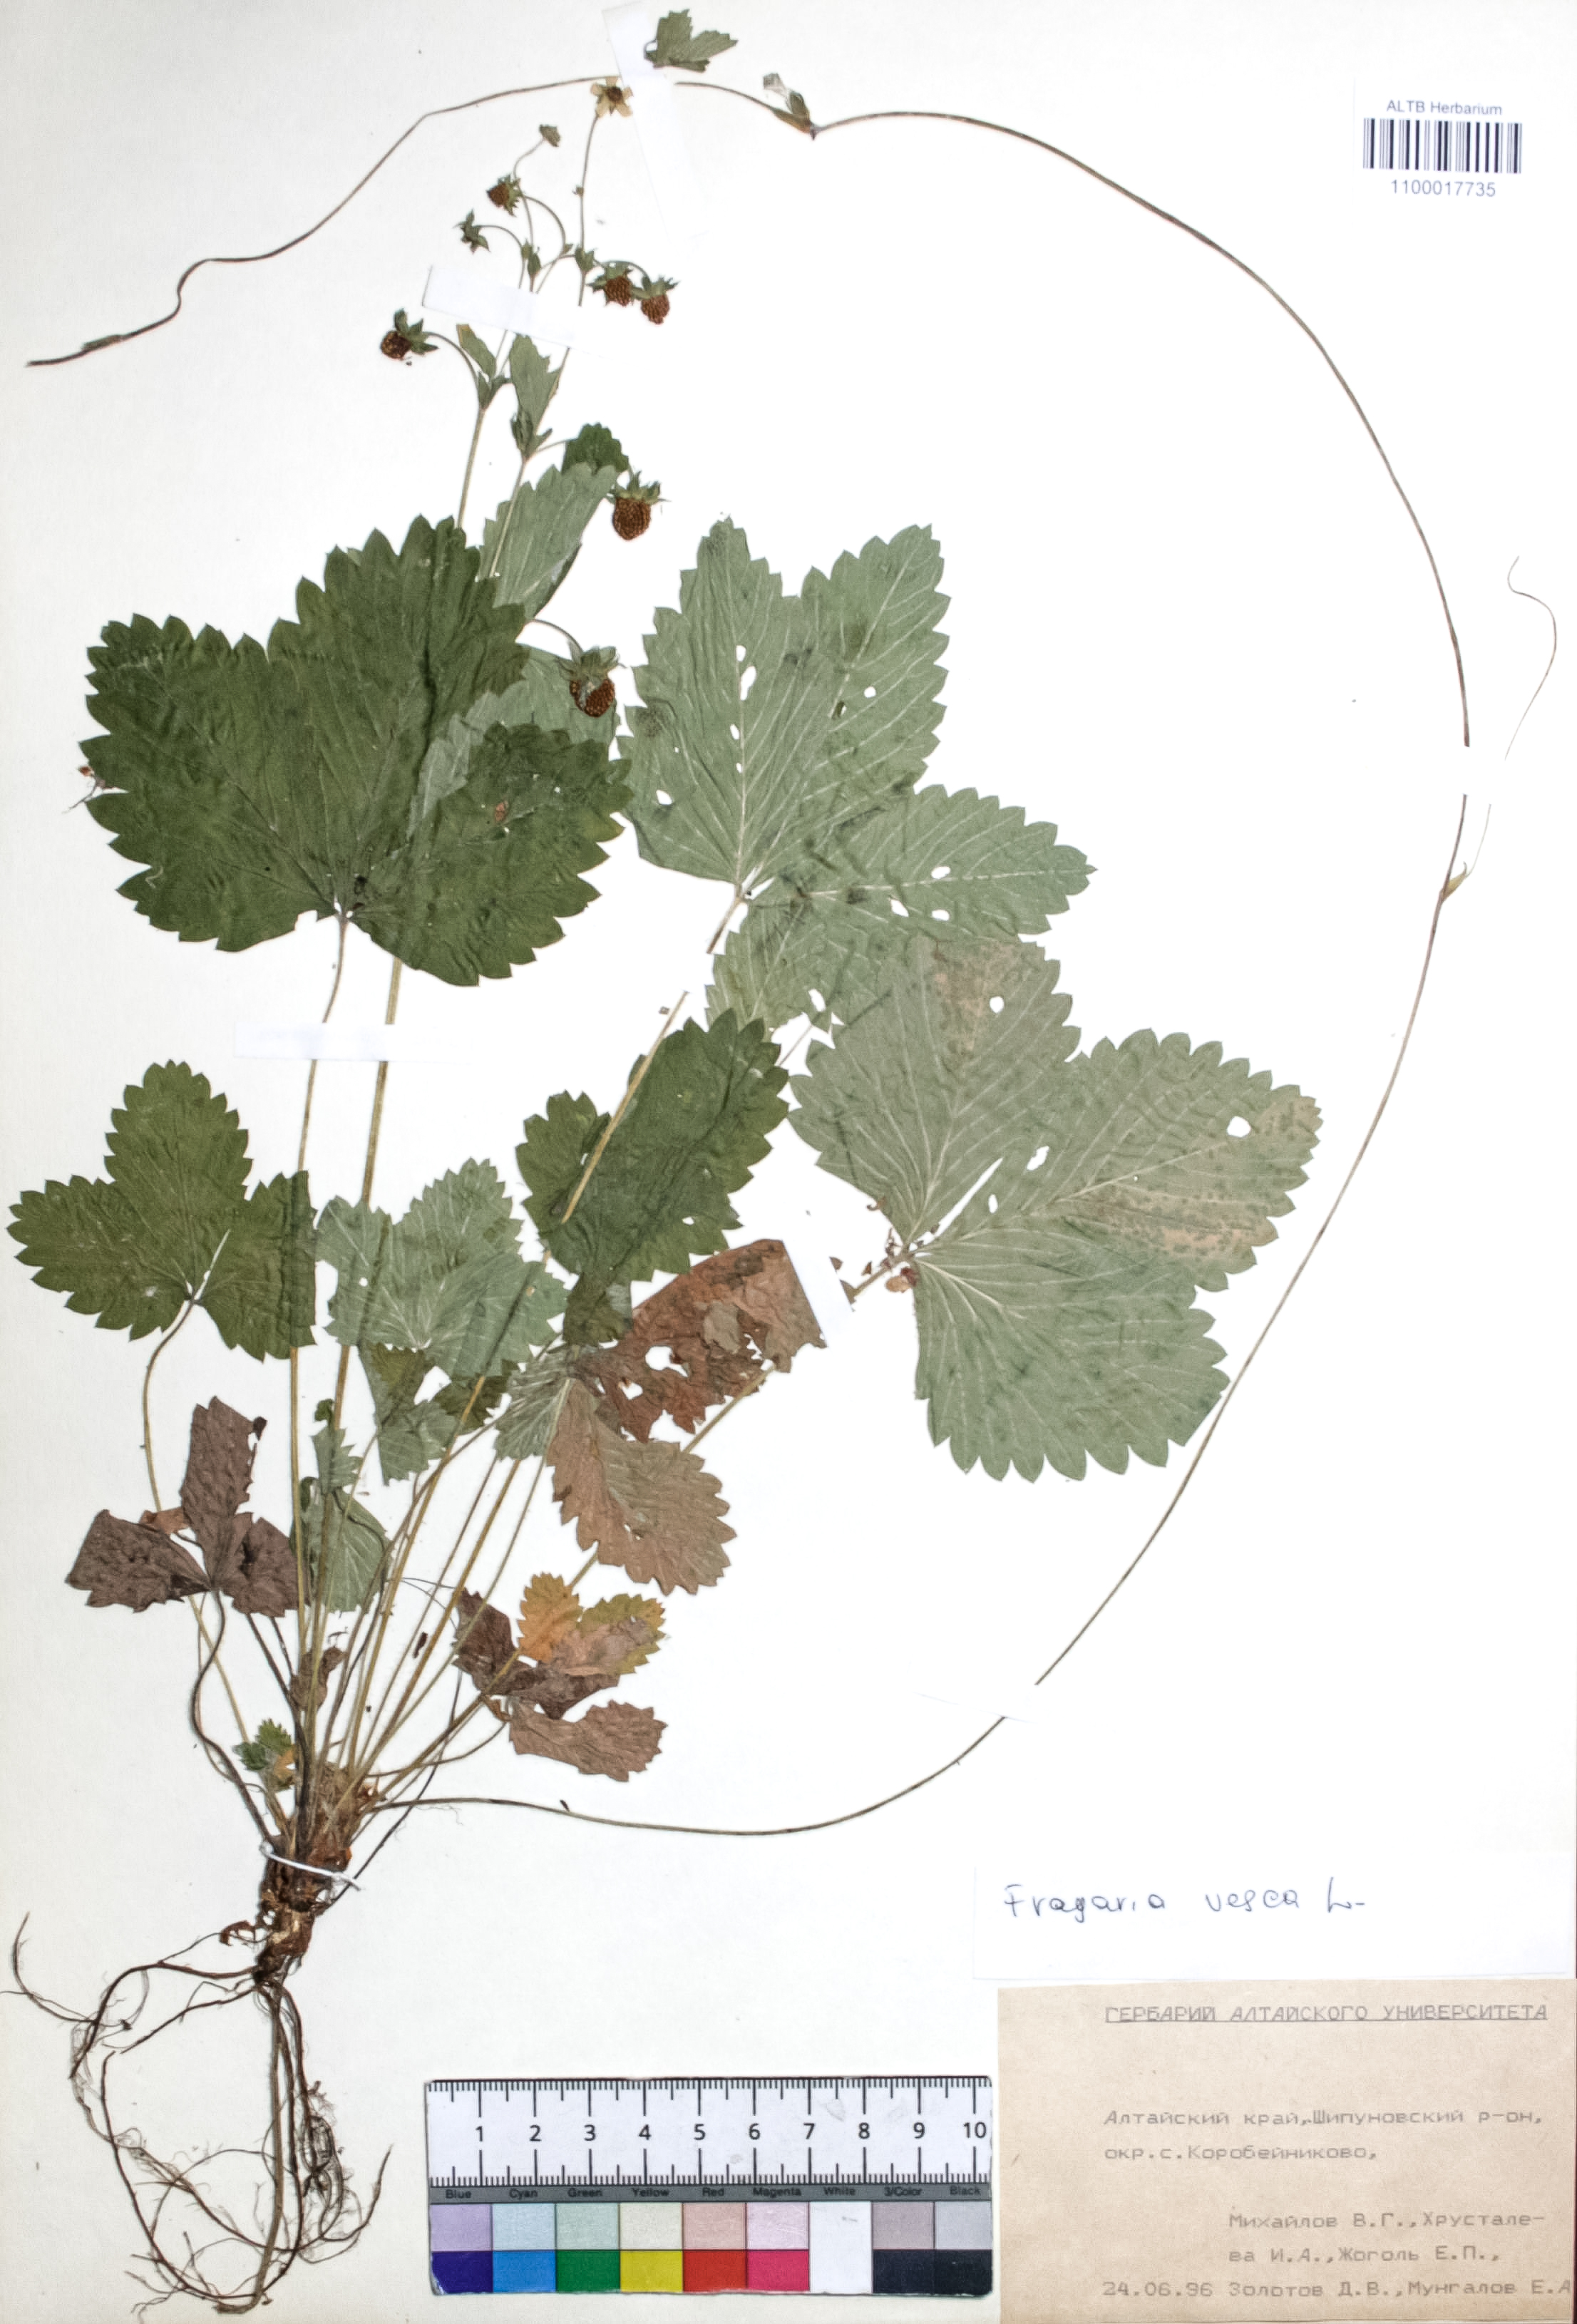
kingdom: Plantae
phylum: Tracheophyta
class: Magnoliopsida
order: Rosales
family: Rosaceae
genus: Fragaria
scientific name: Fragaria vesca
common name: Wild strawberry
